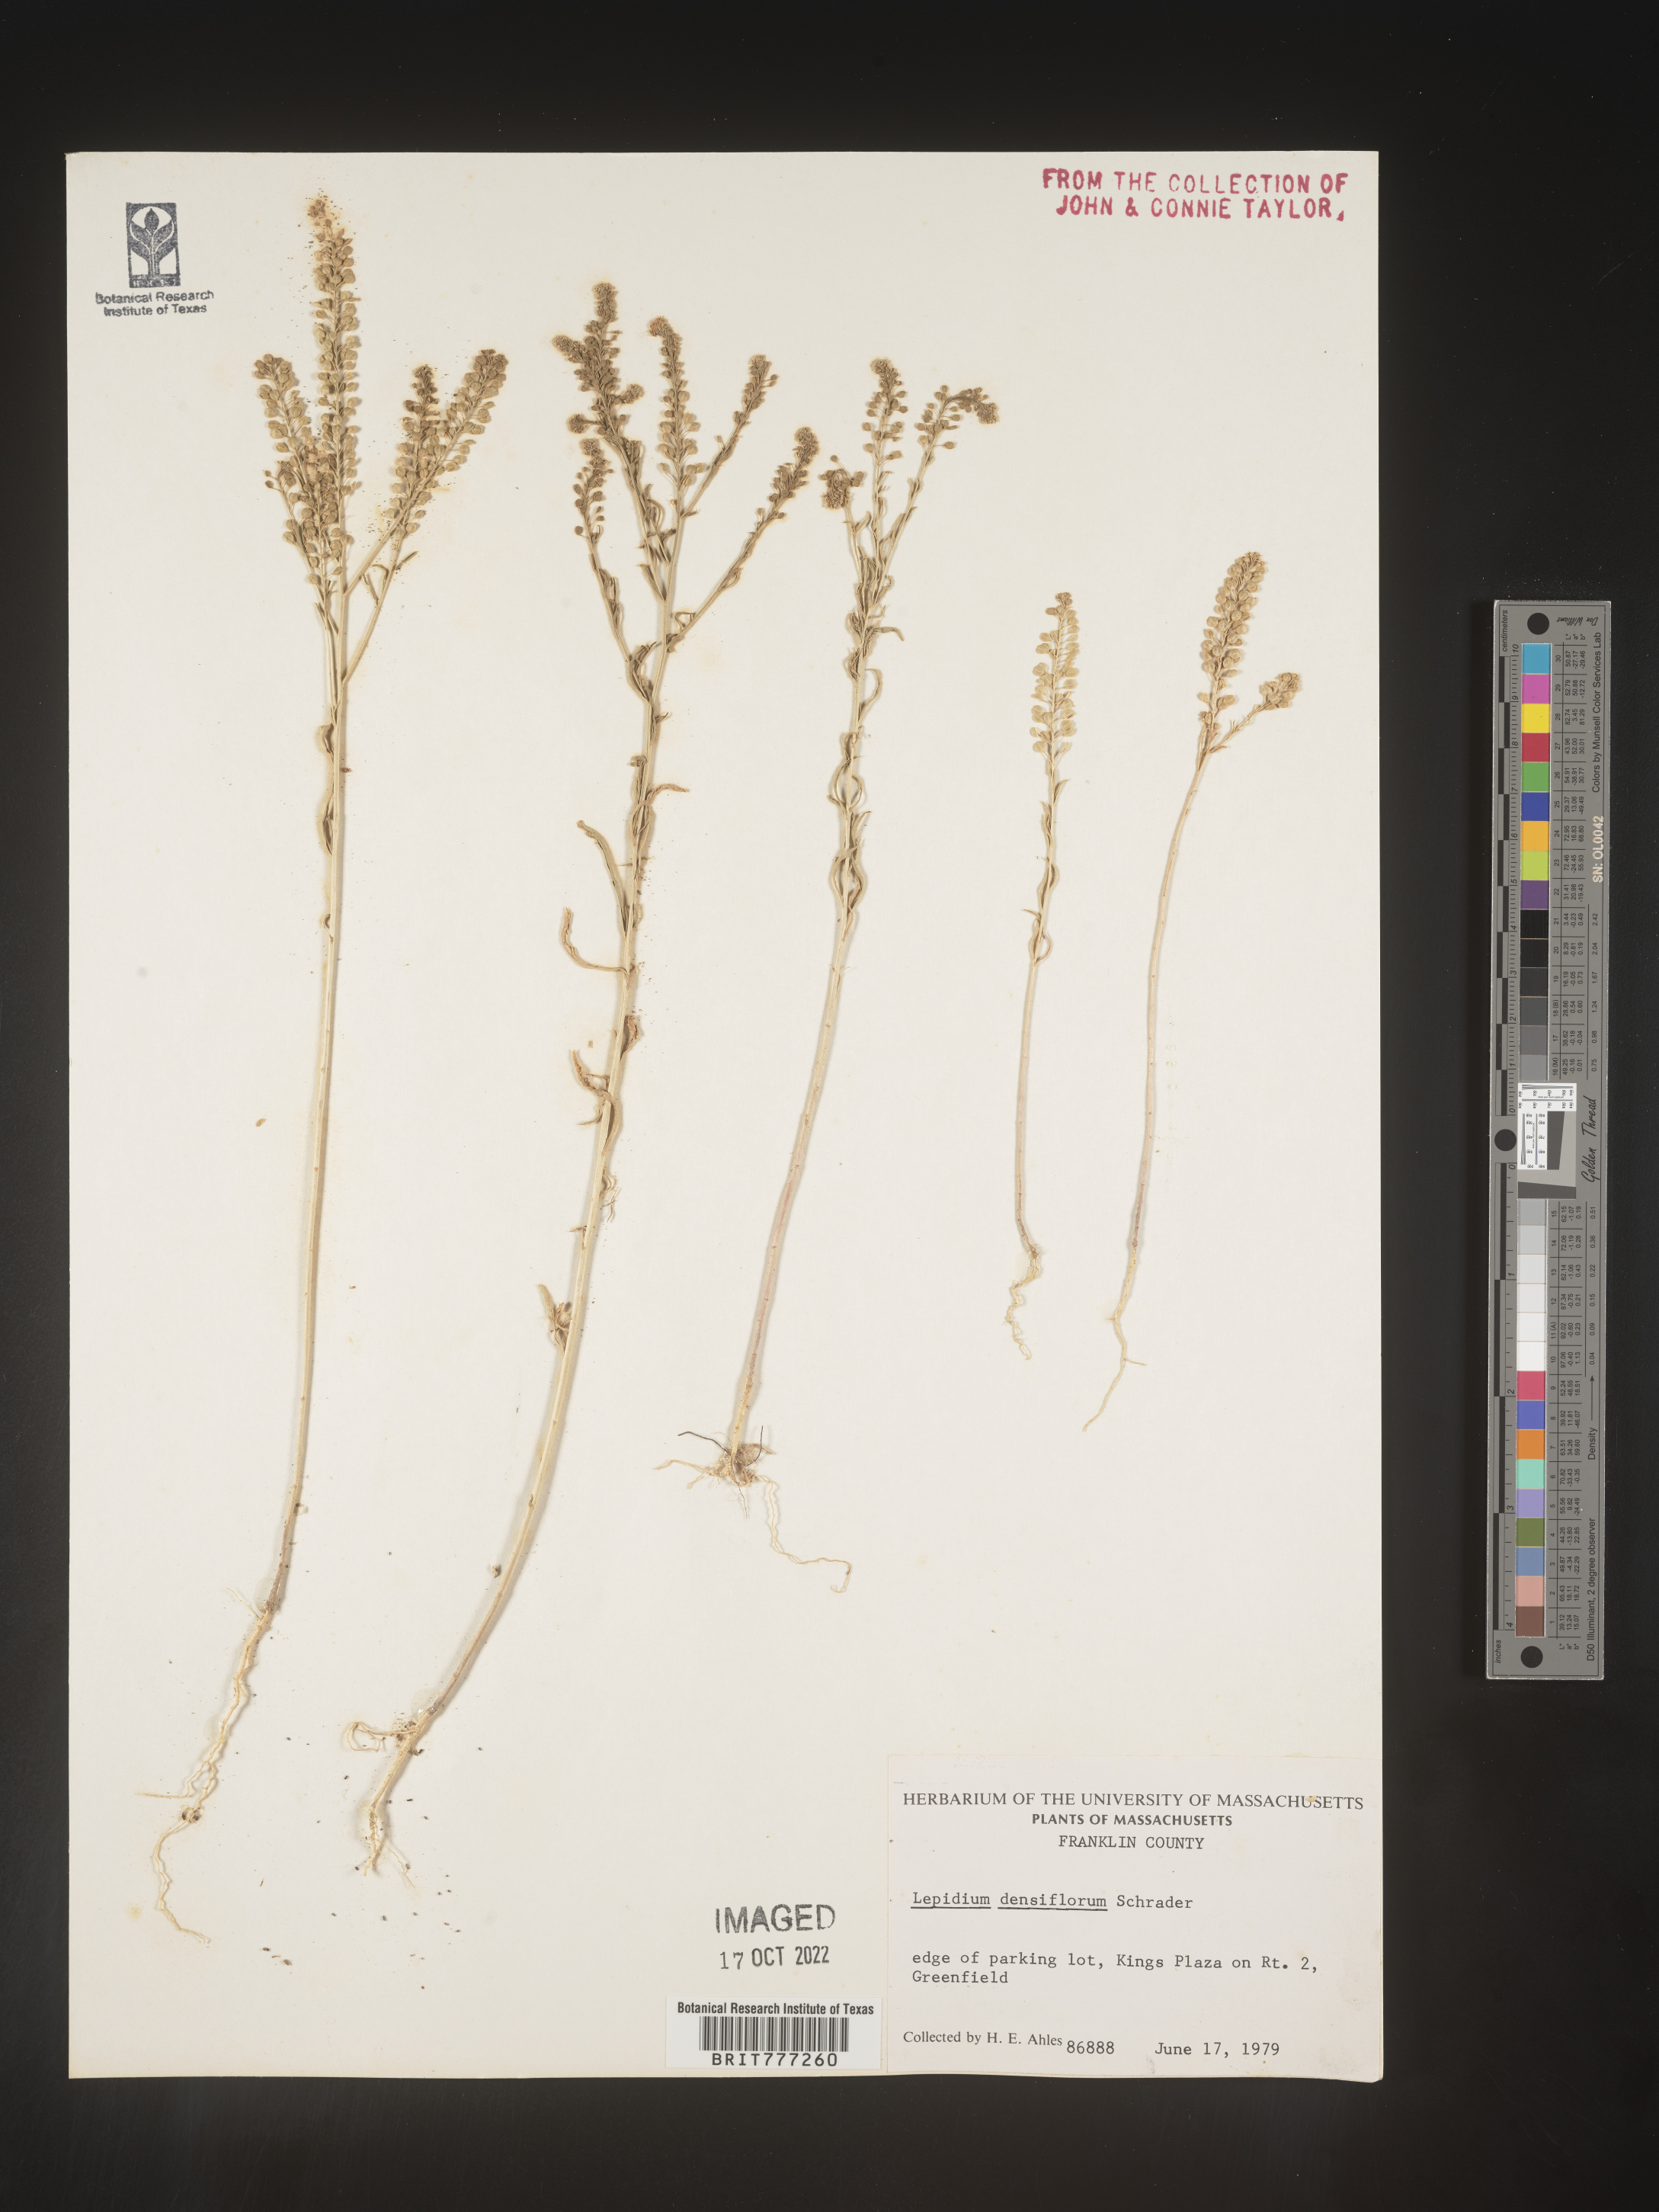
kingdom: Plantae
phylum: Tracheophyta
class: Magnoliopsida
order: Brassicales
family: Brassicaceae
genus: Lepidium
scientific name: Lepidium densiflorum
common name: Miner's pepperwort
